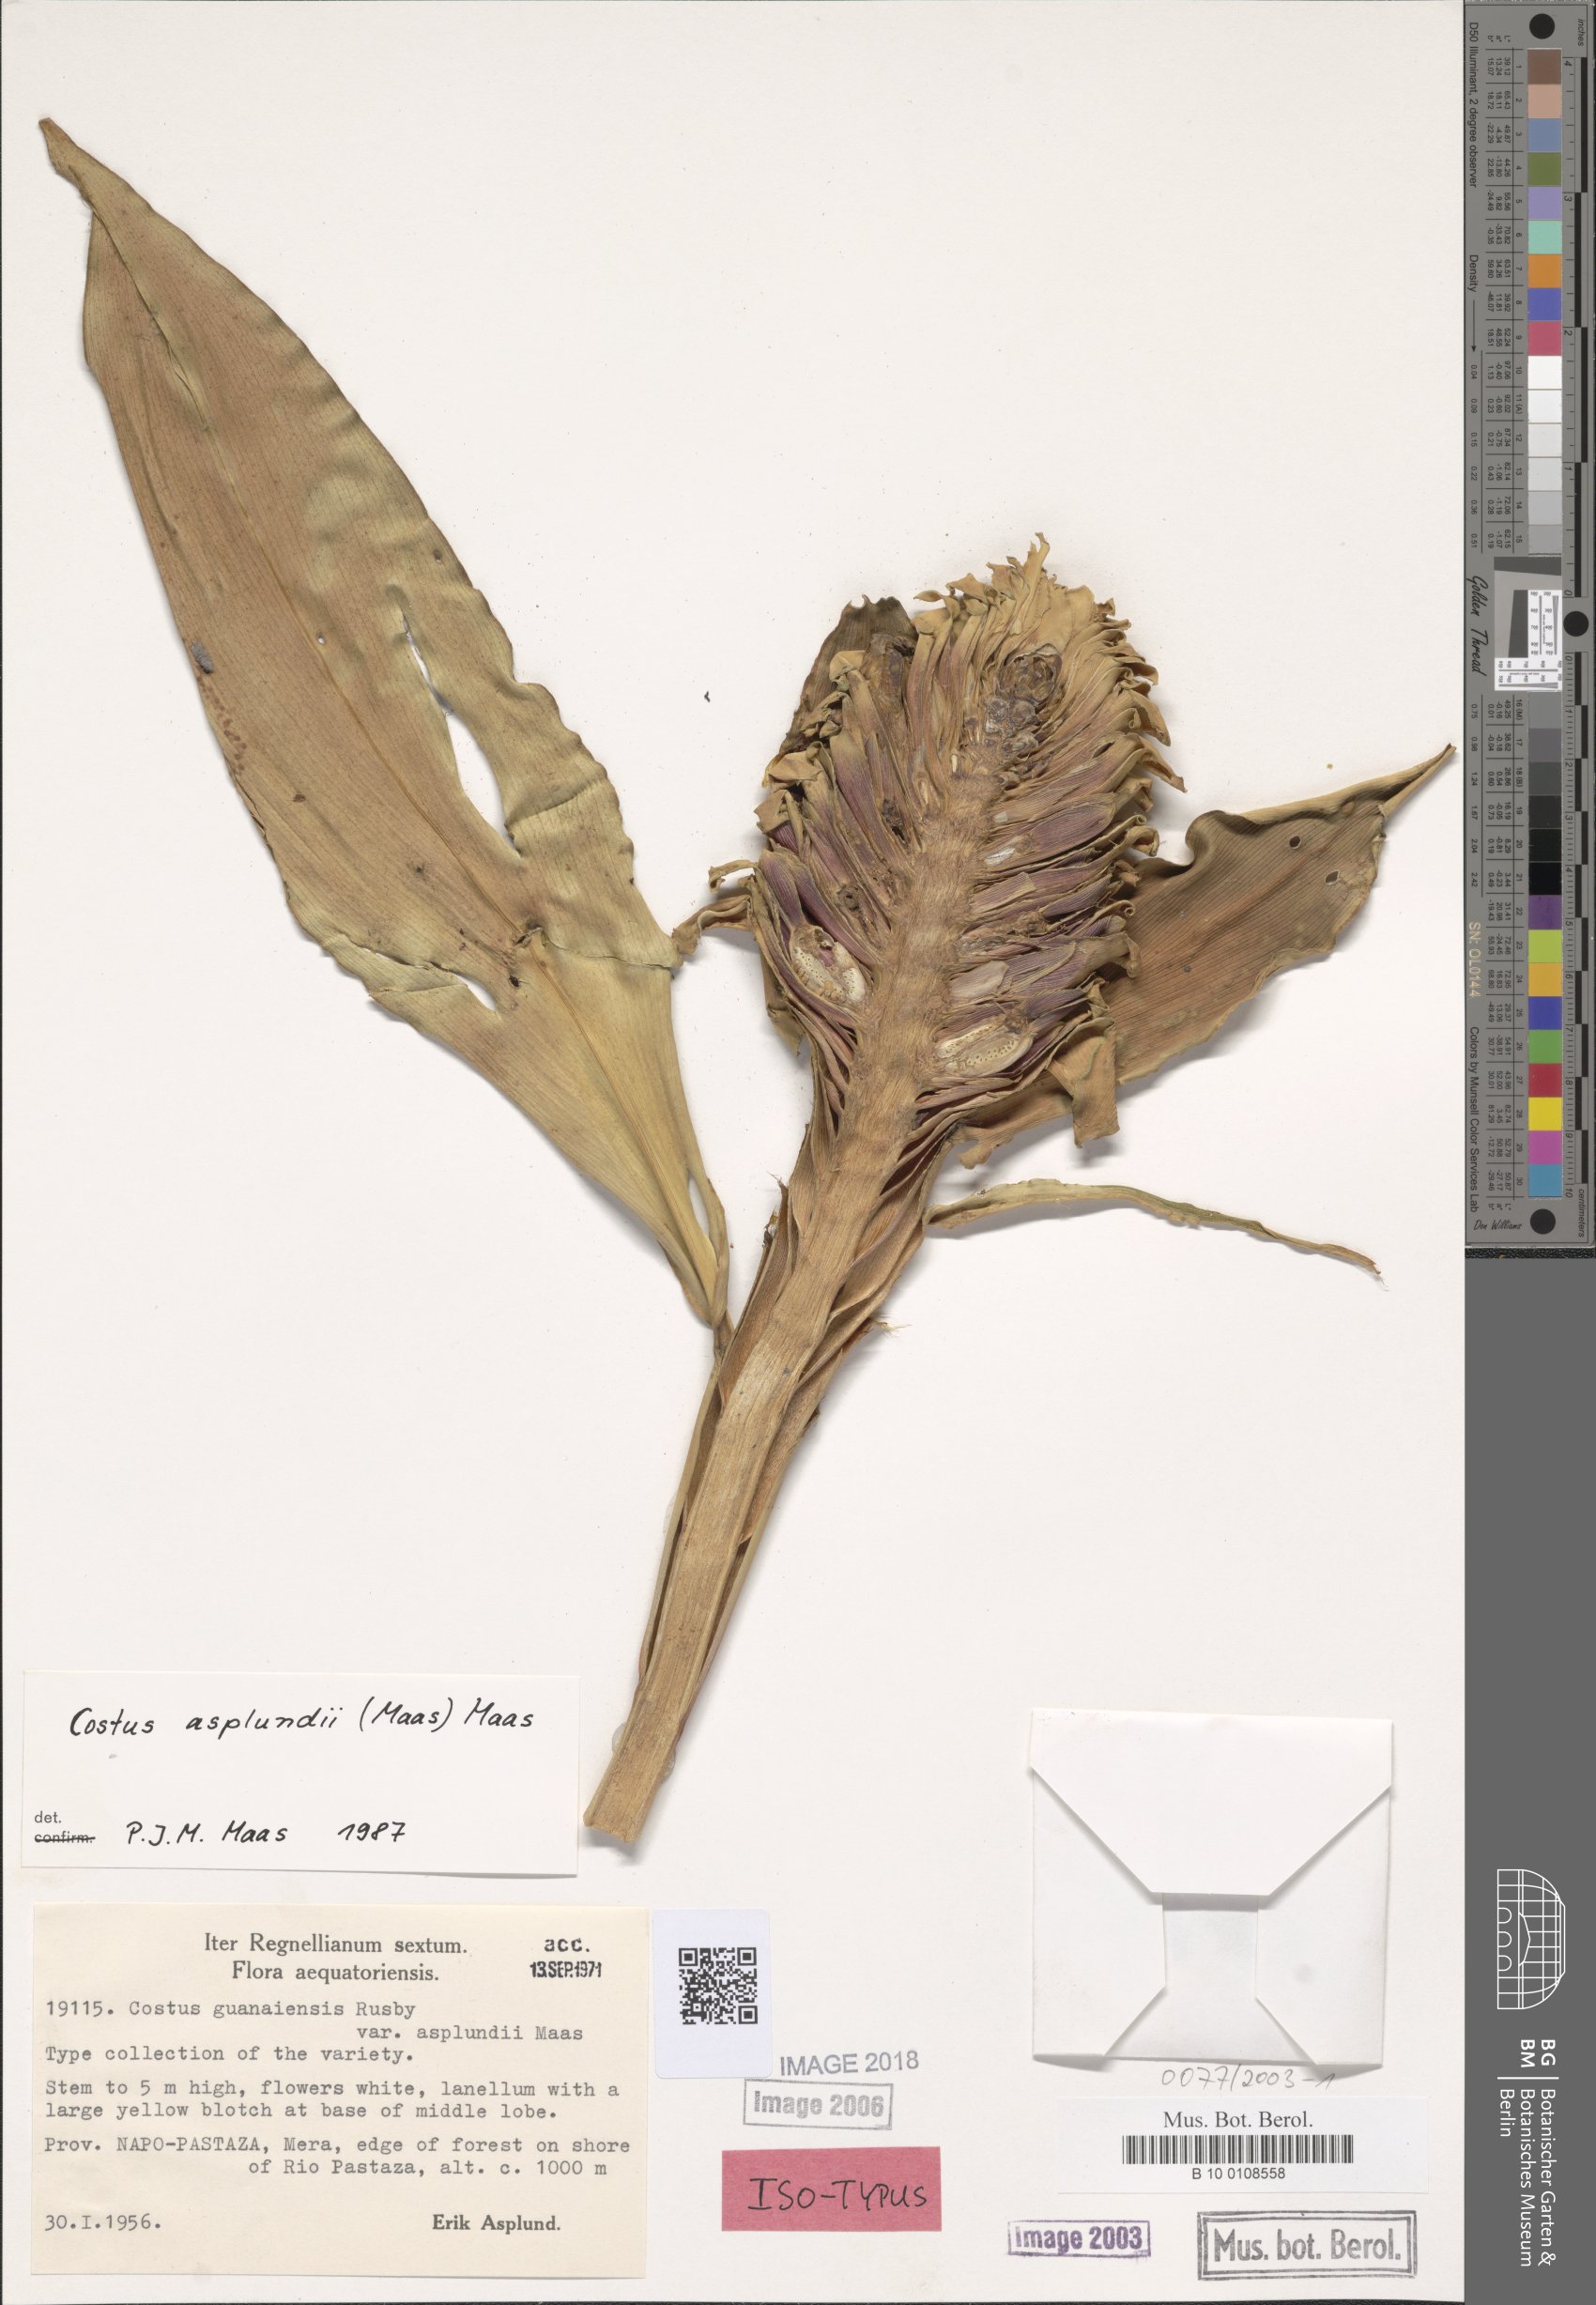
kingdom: Plantae
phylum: Tracheophyta
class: Liliopsida
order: Zingiberales
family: Costaceae
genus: Costus
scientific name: Costus asplundii
